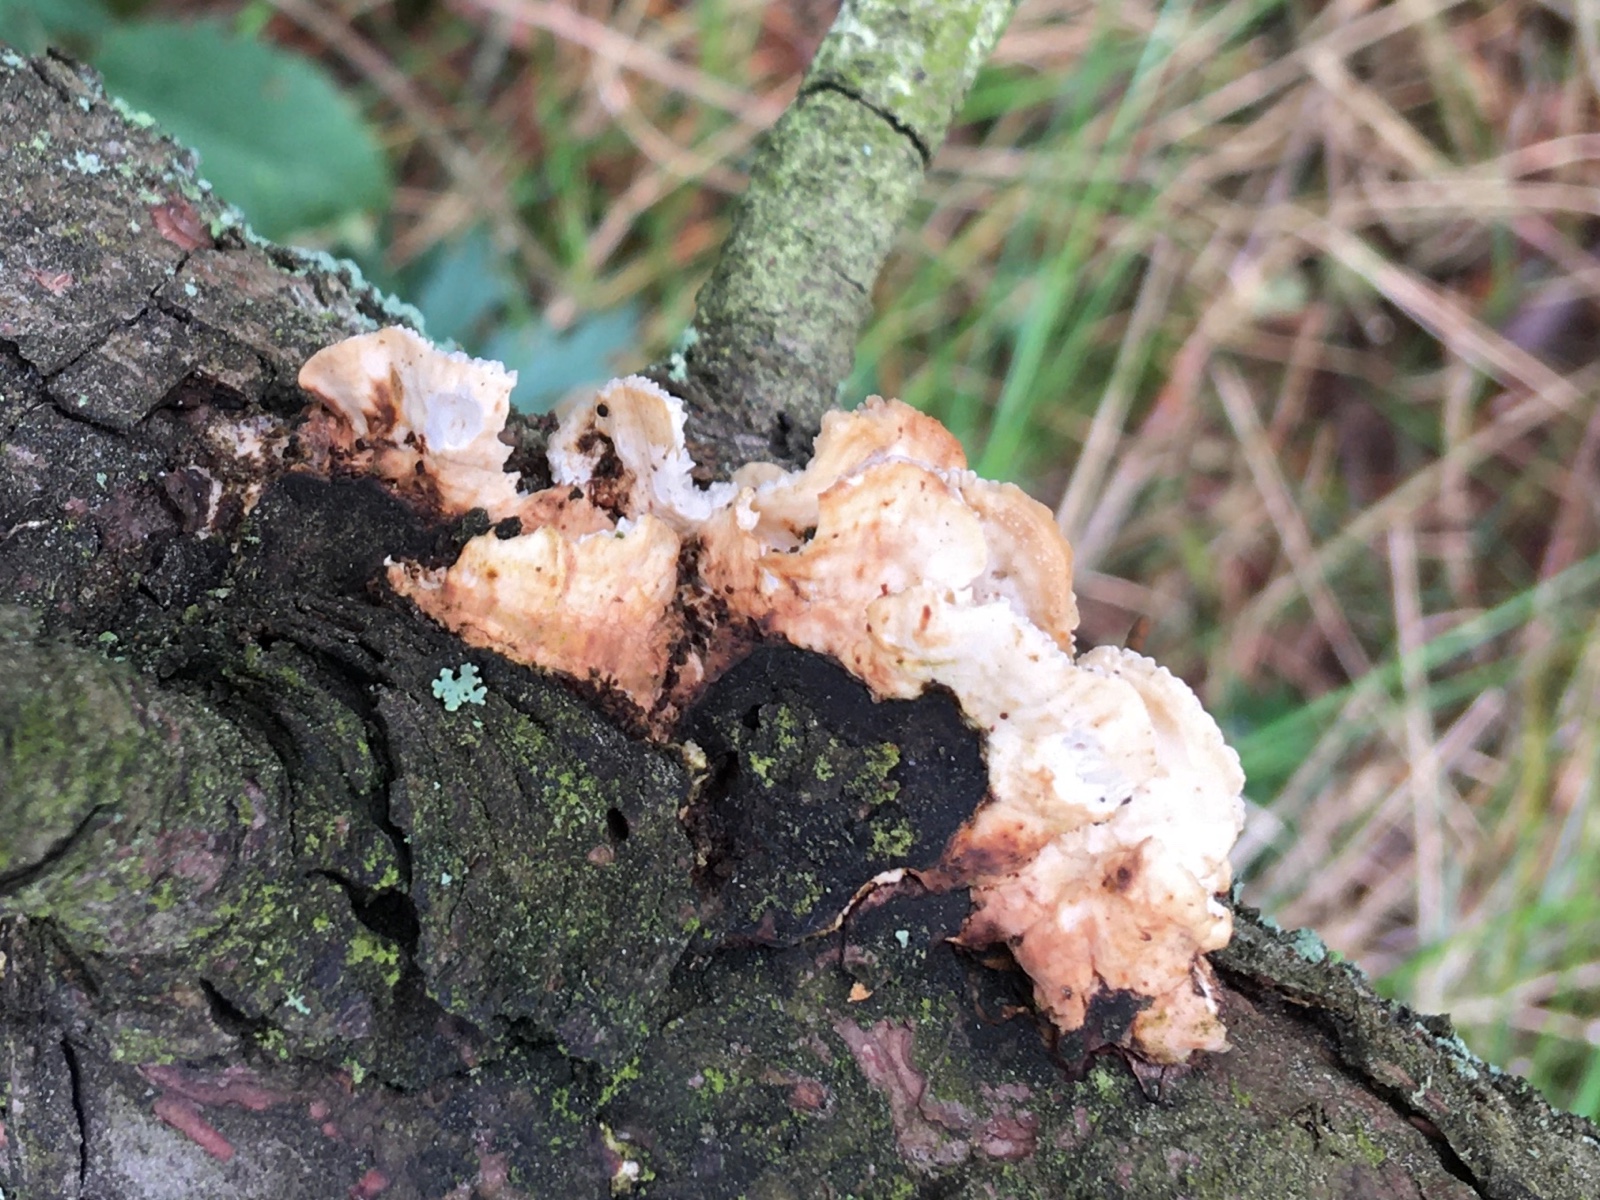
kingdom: Fungi
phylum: Basidiomycota
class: Agaricomycetes
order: Polyporales
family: Fomitopsidaceae
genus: Fomitopsis
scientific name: Fomitopsis
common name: fyrre-skiveporesvamp
